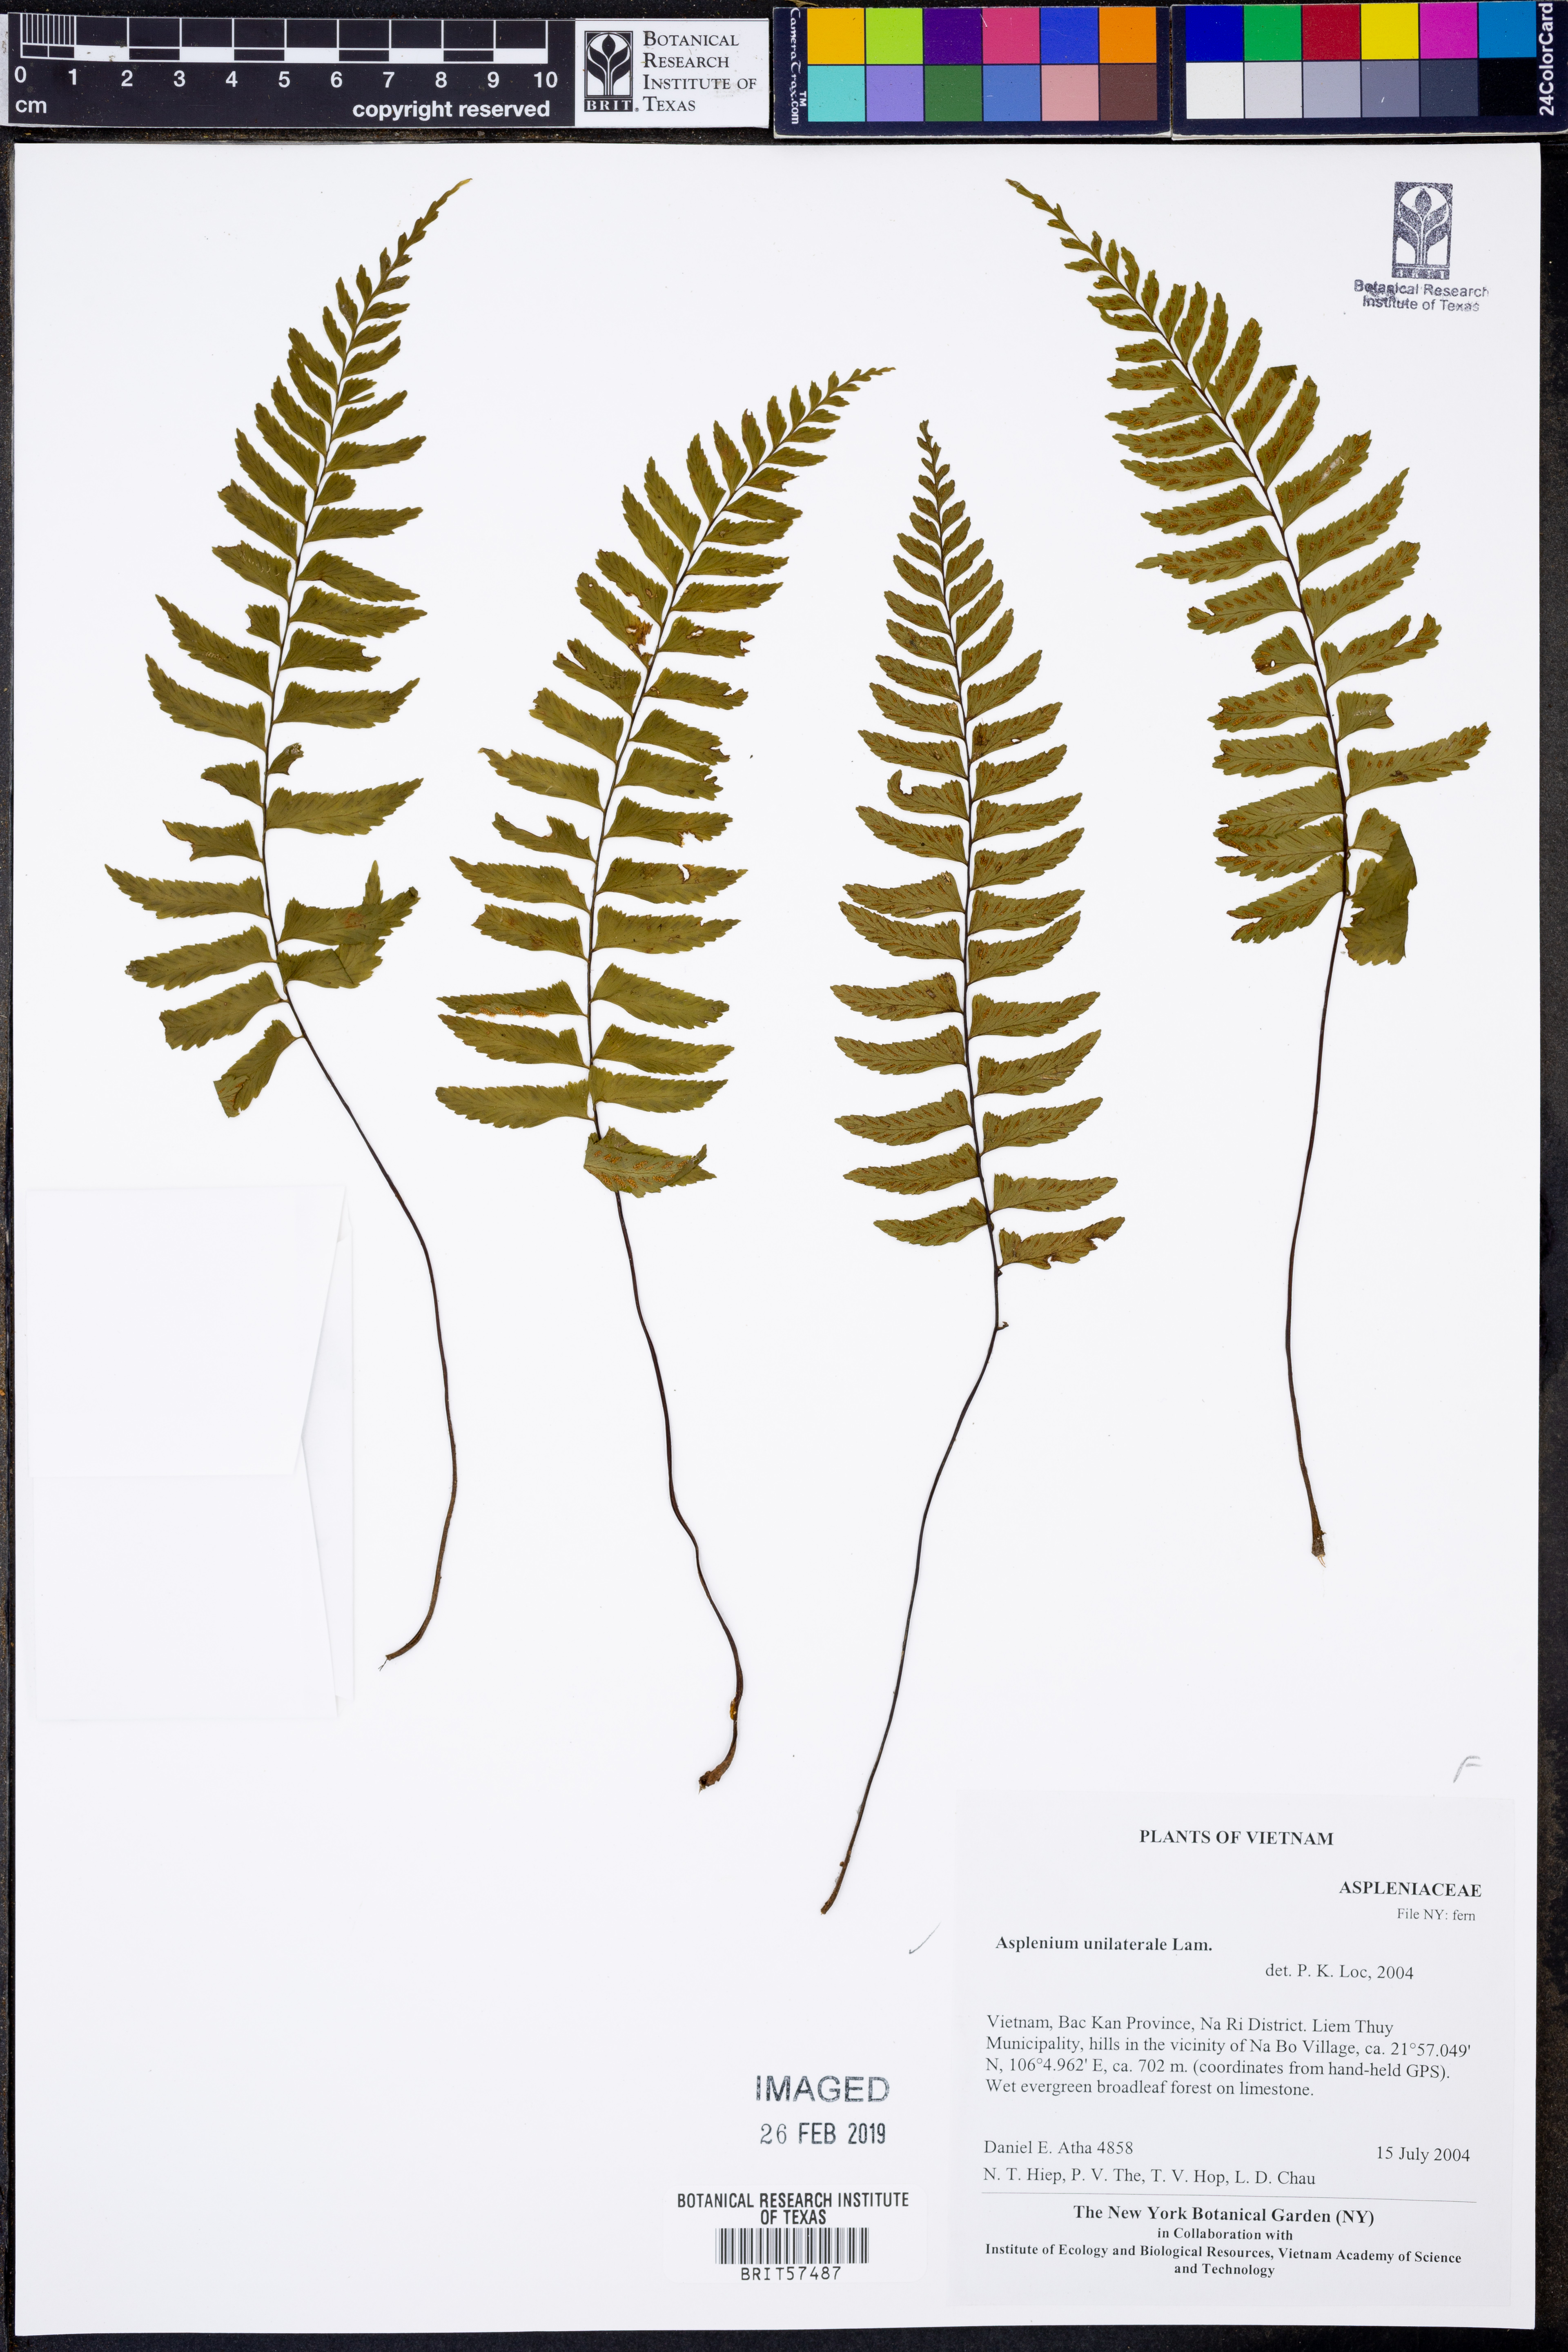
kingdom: Plantae
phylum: Tracheophyta
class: Polypodiopsida
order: Polypodiales
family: Aspleniaceae
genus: Hymenasplenium
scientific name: Hymenasplenium unilaterale
